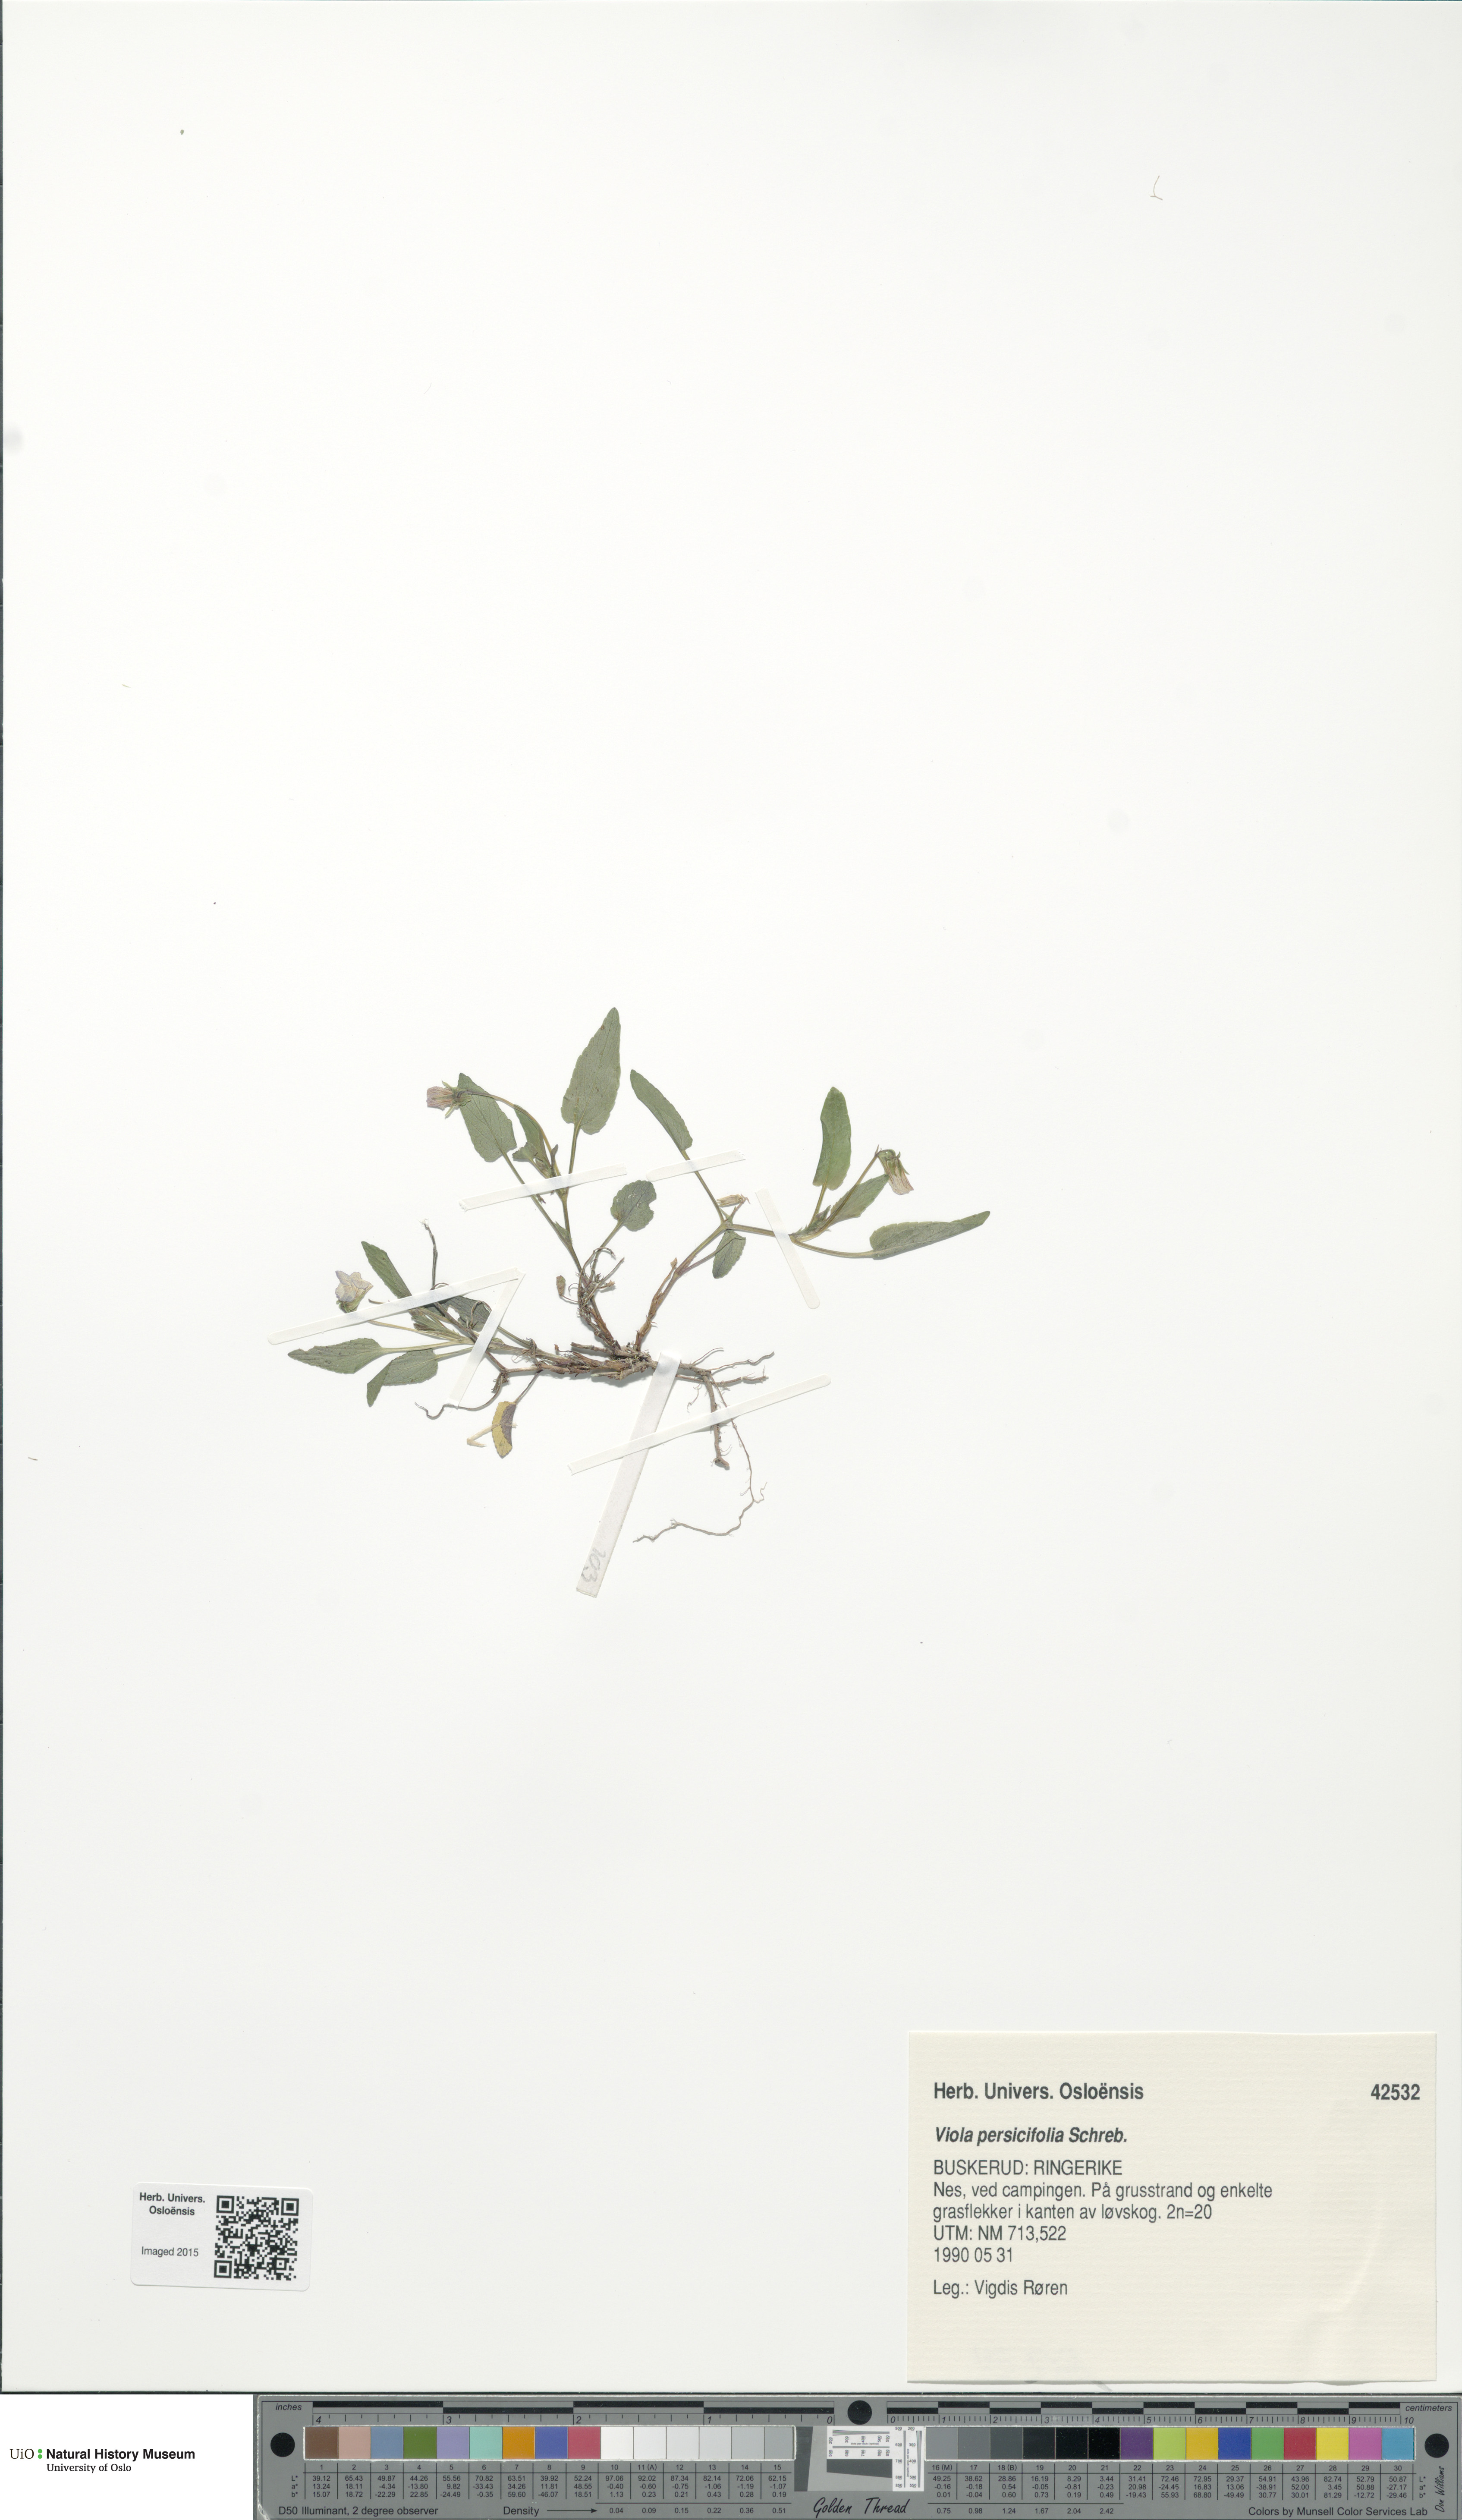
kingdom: Plantae
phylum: Tracheophyta
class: Magnoliopsida
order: Malpighiales
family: Violaceae
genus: Viola
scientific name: Viola stagnina
